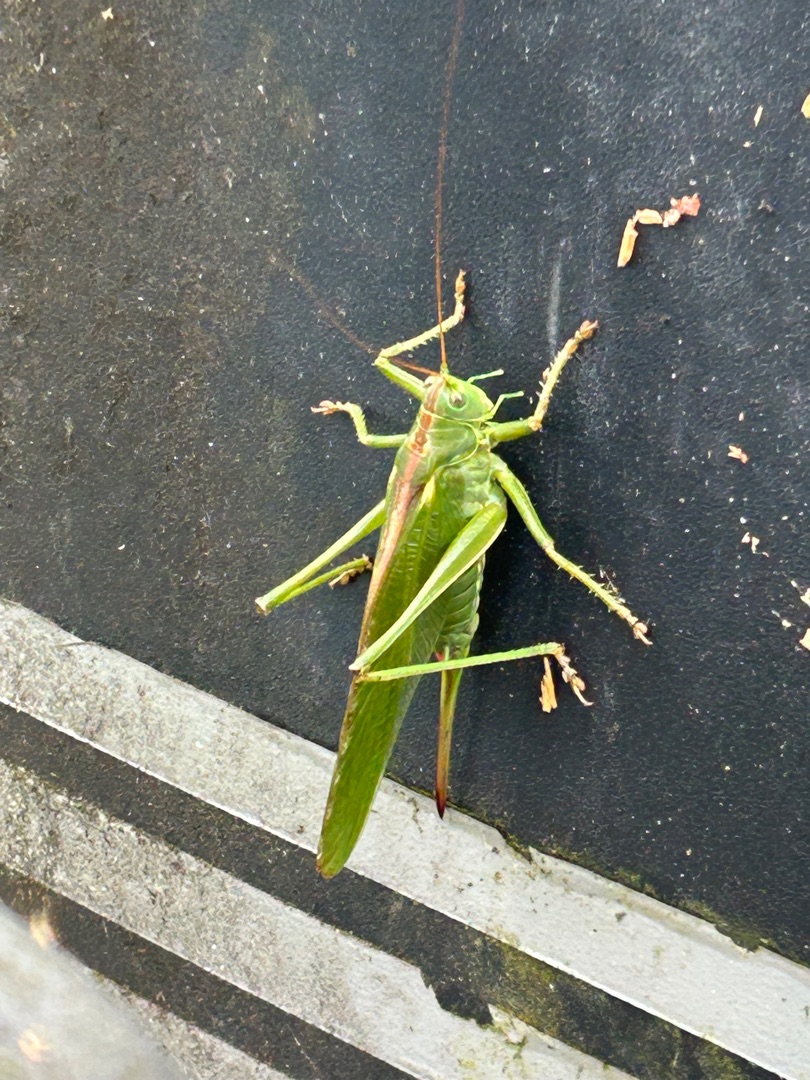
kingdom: Animalia
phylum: Arthropoda
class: Insecta
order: Orthoptera
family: Tettigoniidae
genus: Tettigonia
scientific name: Tettigonia viridissima
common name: Stor grøn løvgræshoppe
